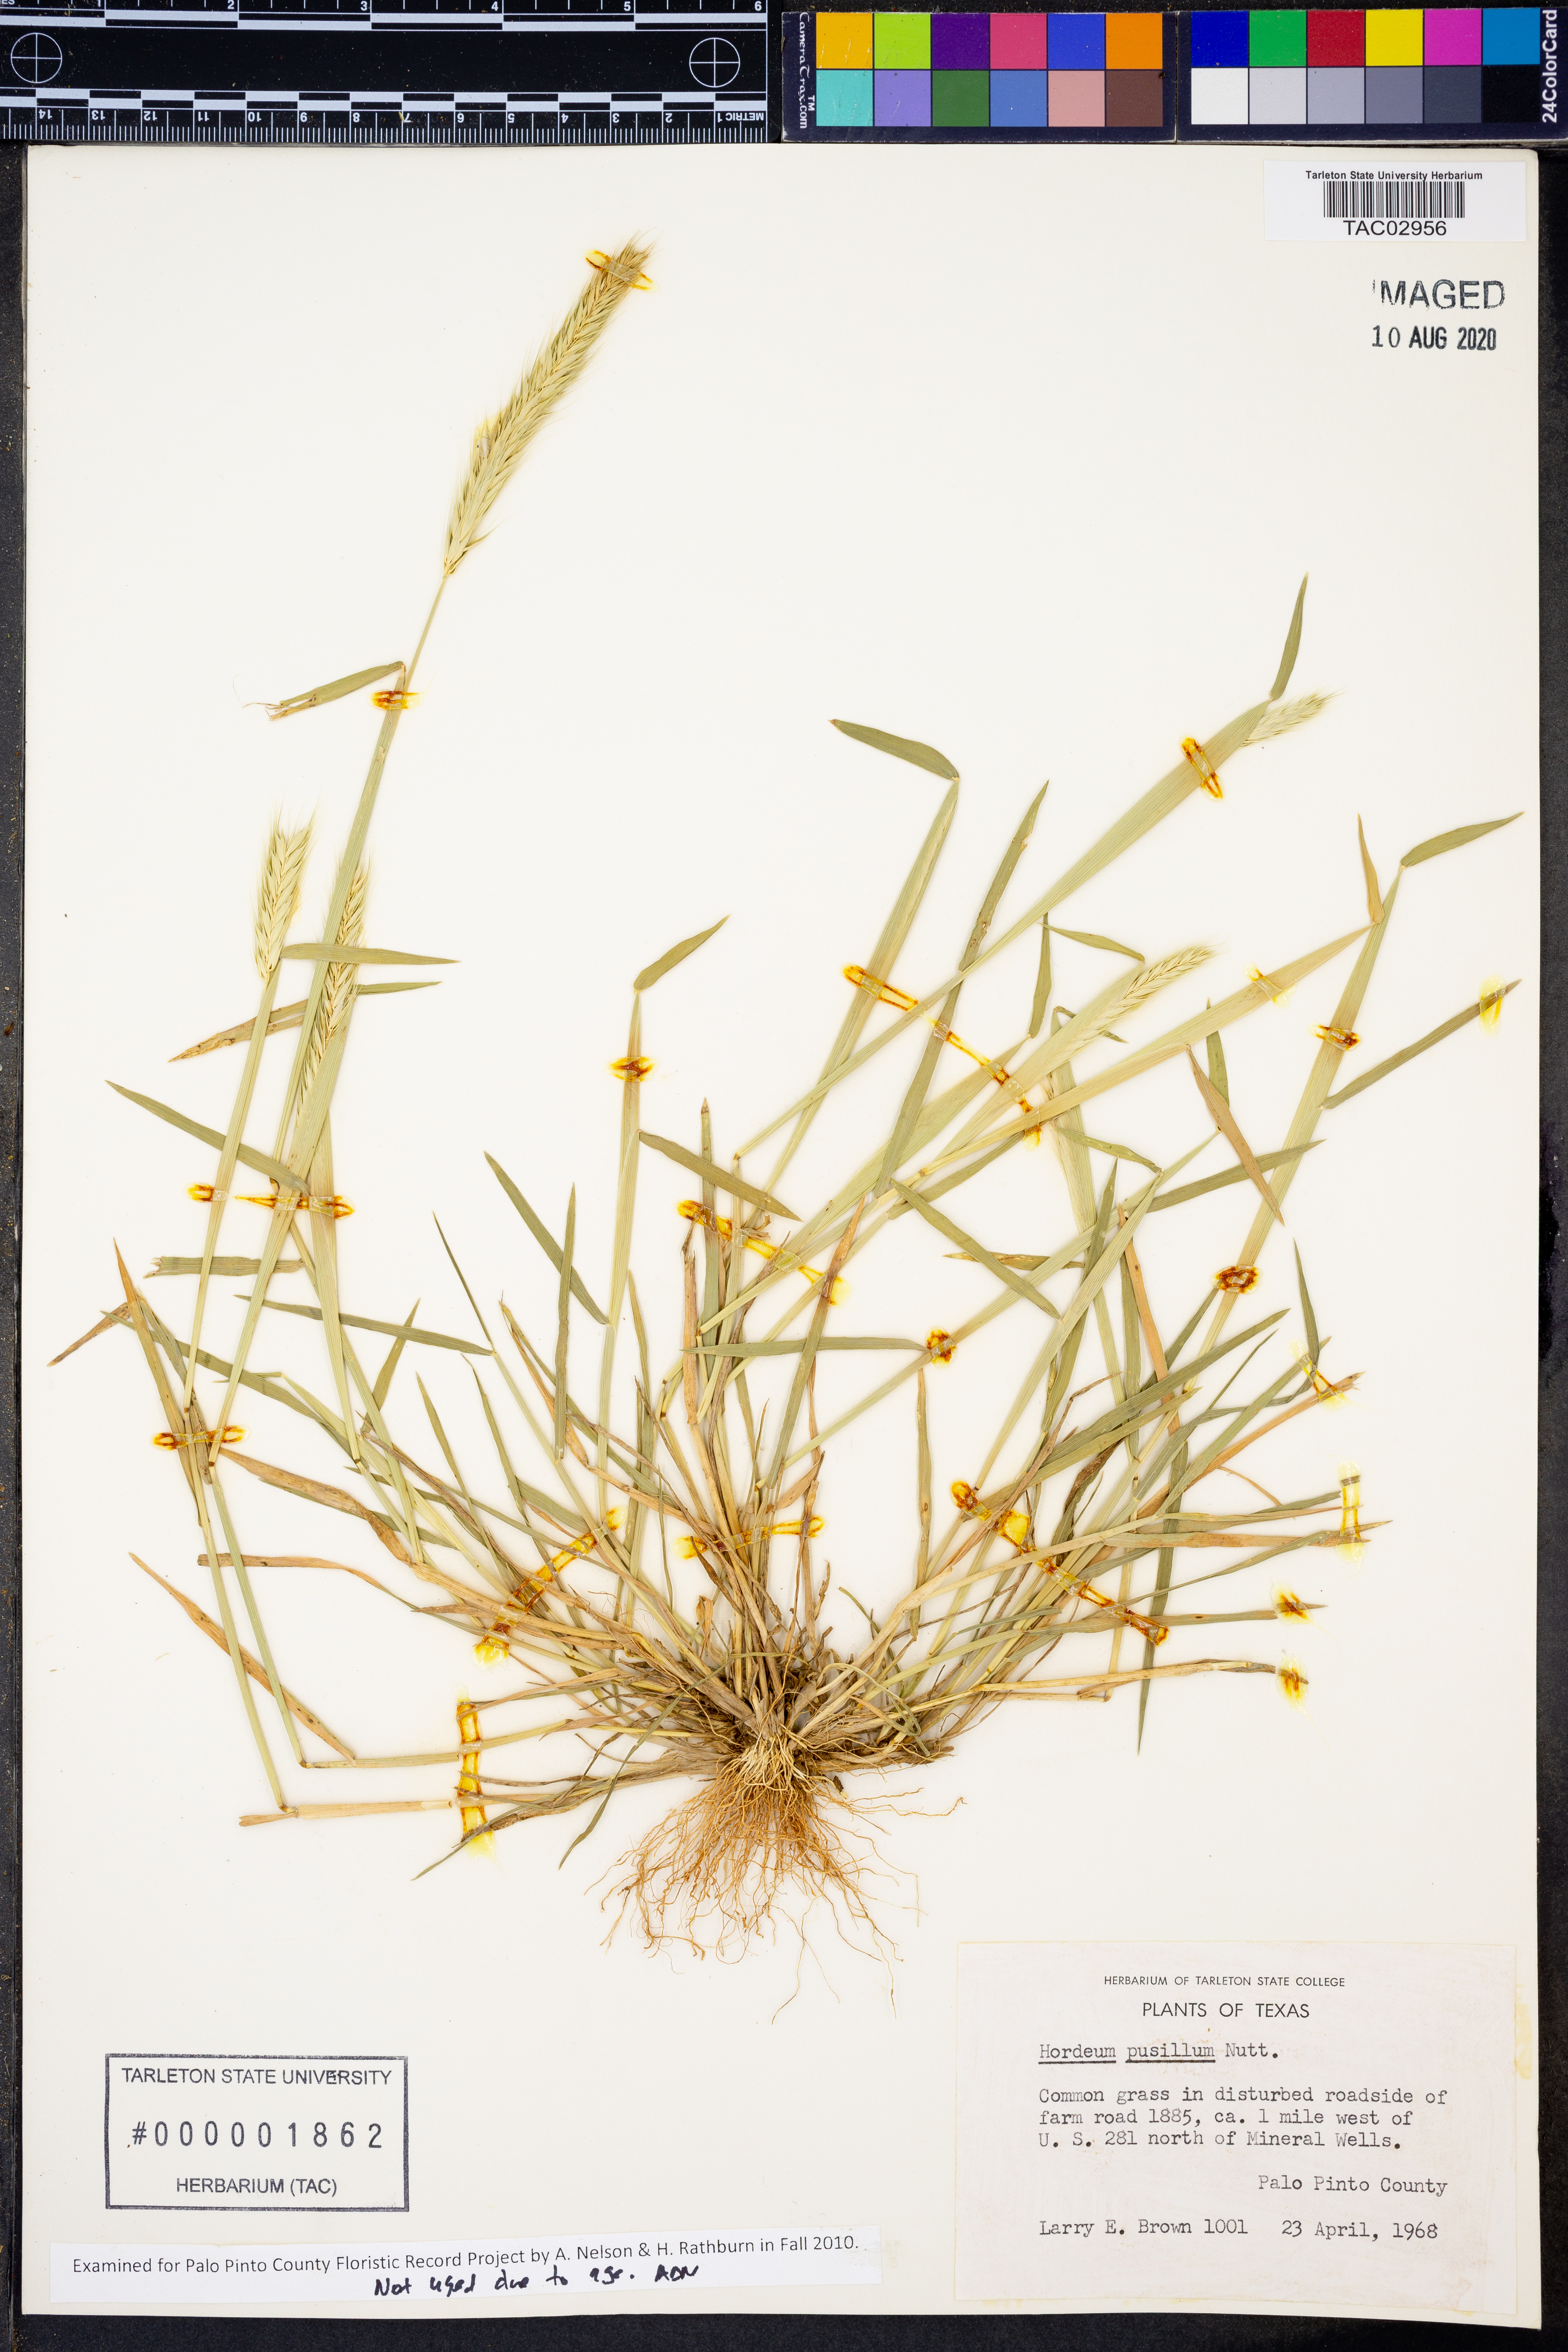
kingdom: Plantae
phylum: Tracheophyta
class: Liliopsida
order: Poales
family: Poaceae
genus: Hordeum
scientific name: Hordeum pusillum
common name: Little barley
